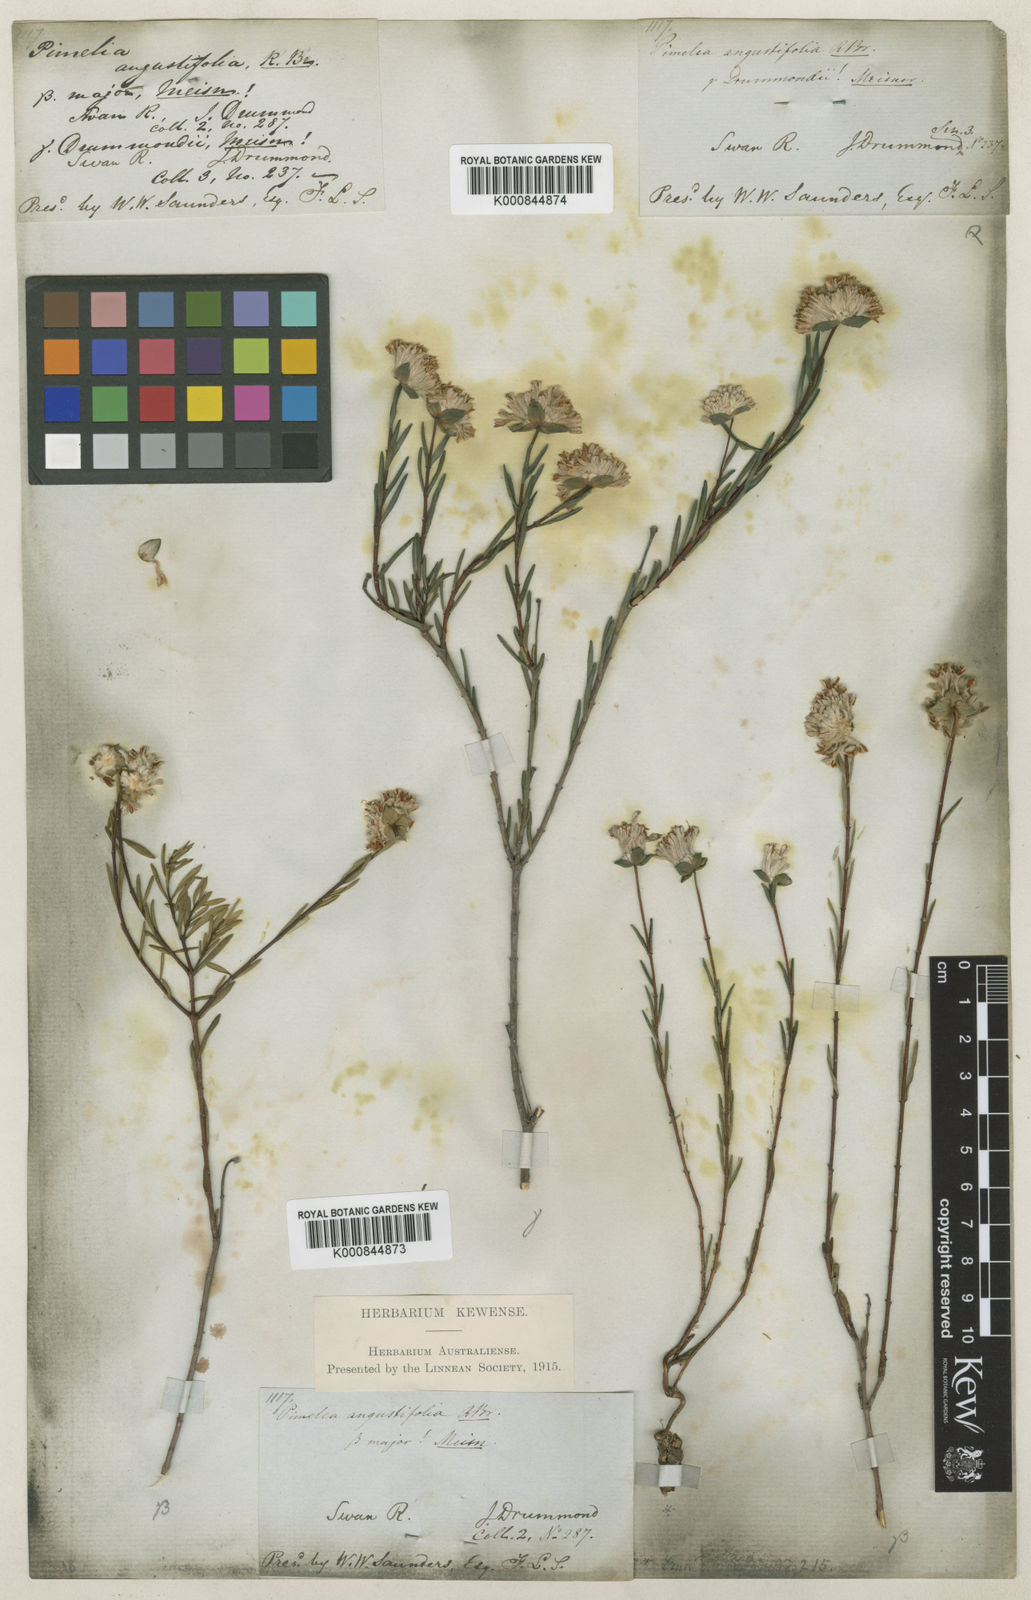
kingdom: Plantae
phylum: Tracheophyta
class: Magnoliopsida
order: Malvales
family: Thymelaeaceae
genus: Pimelea
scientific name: Pimelea angustifolia
